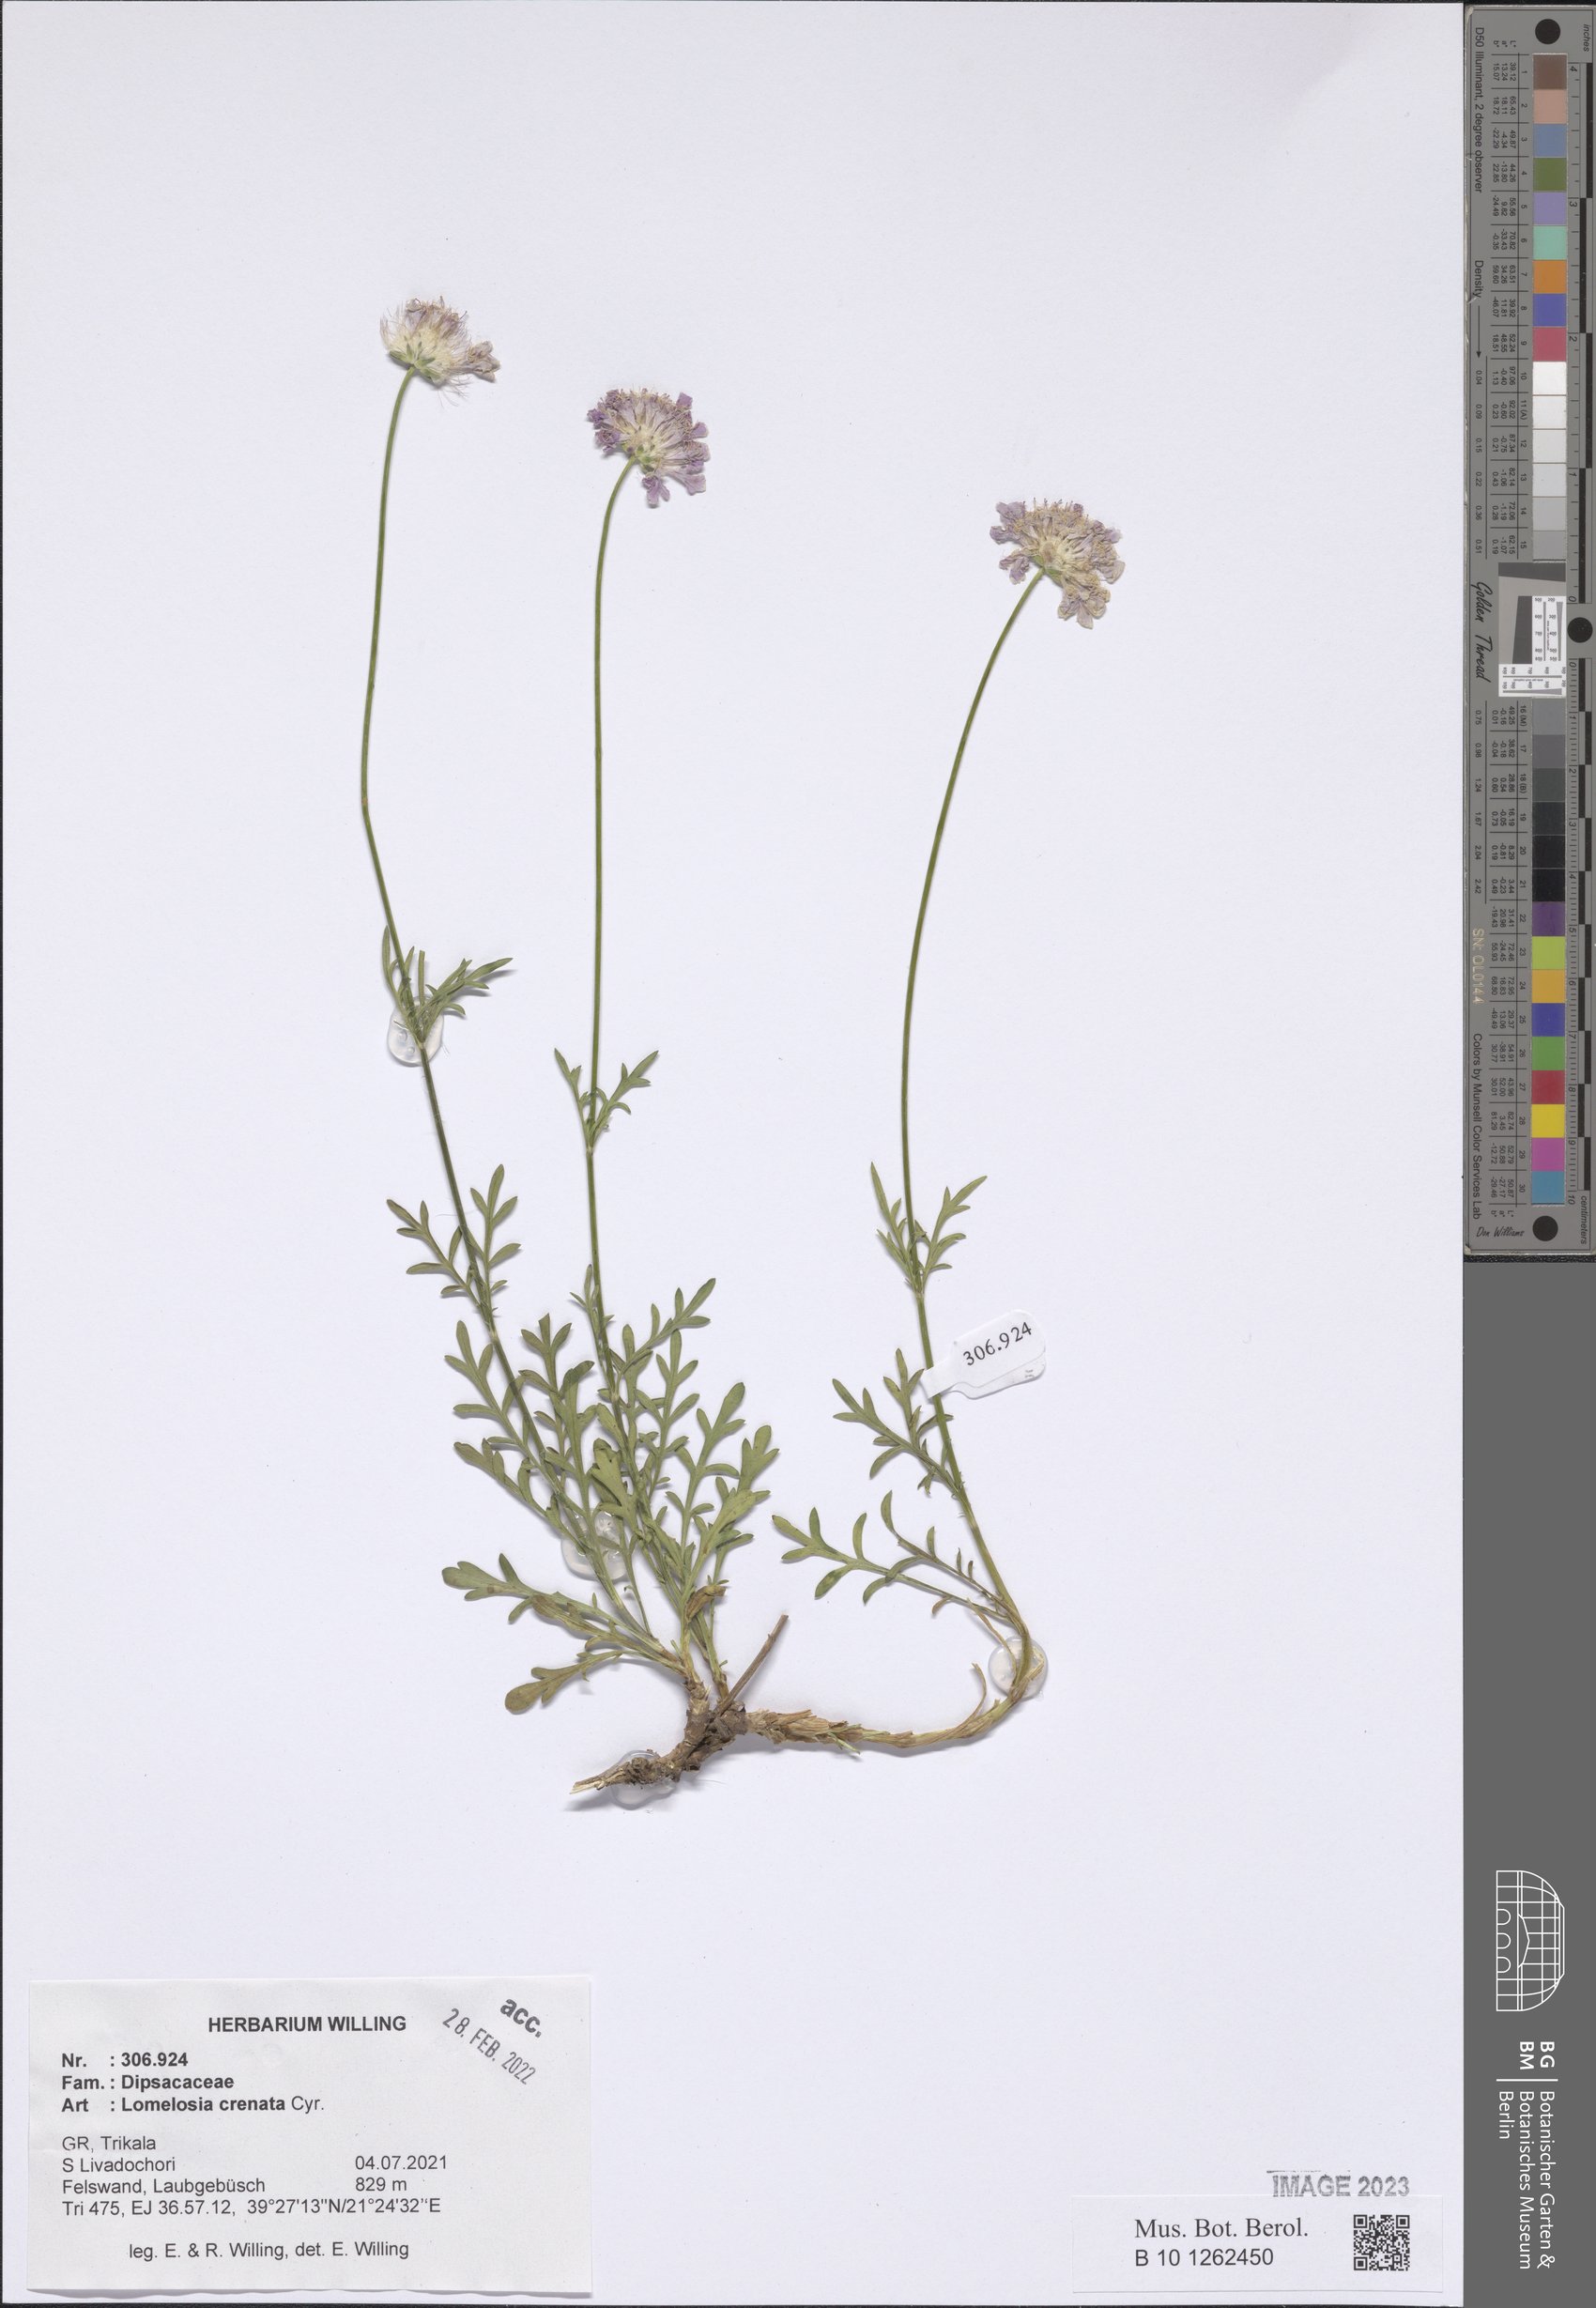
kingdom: Plantae
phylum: Tracheophyta
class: Magnoliopsida
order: Dipsacales
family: Caprifoliaceae
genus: Lomelosia
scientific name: Lomelosia crenata
